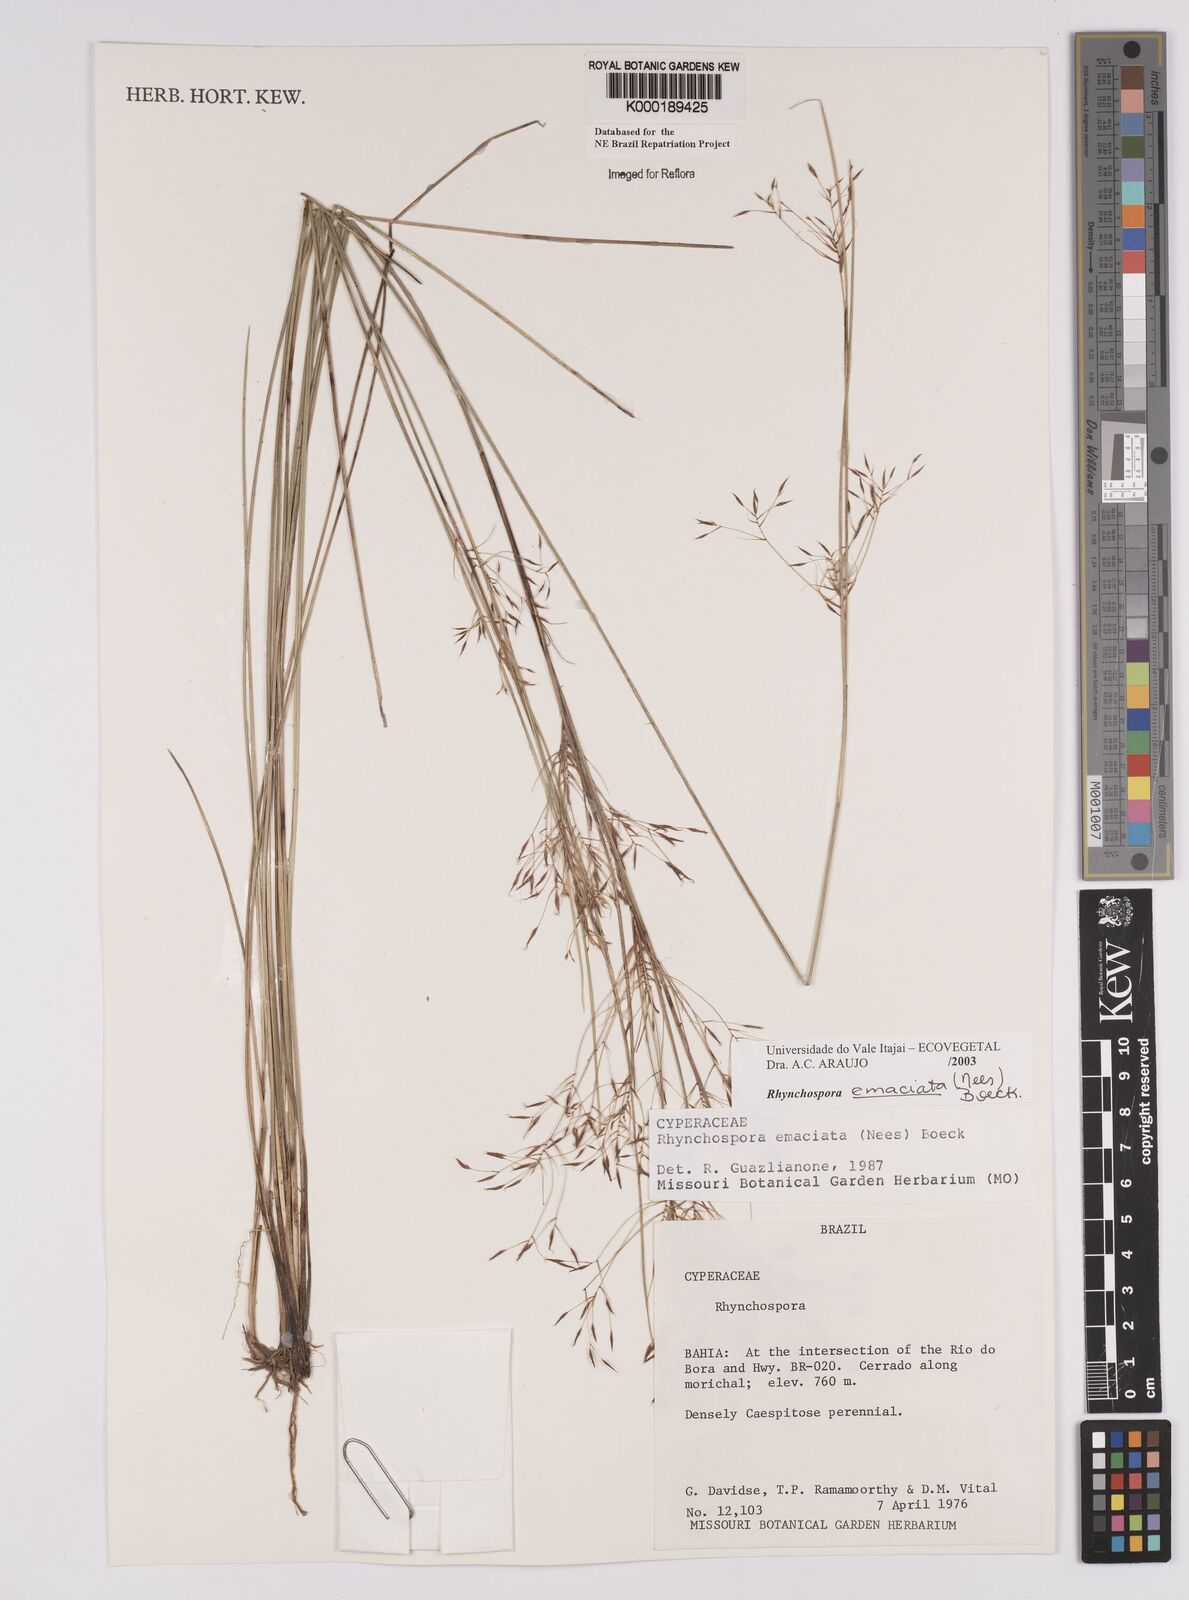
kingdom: Plantae
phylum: Tracheophyta
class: Liliopsida
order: Poales
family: Cyperaceae
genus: Rhynchospora
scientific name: Rhynchospora emaciata
